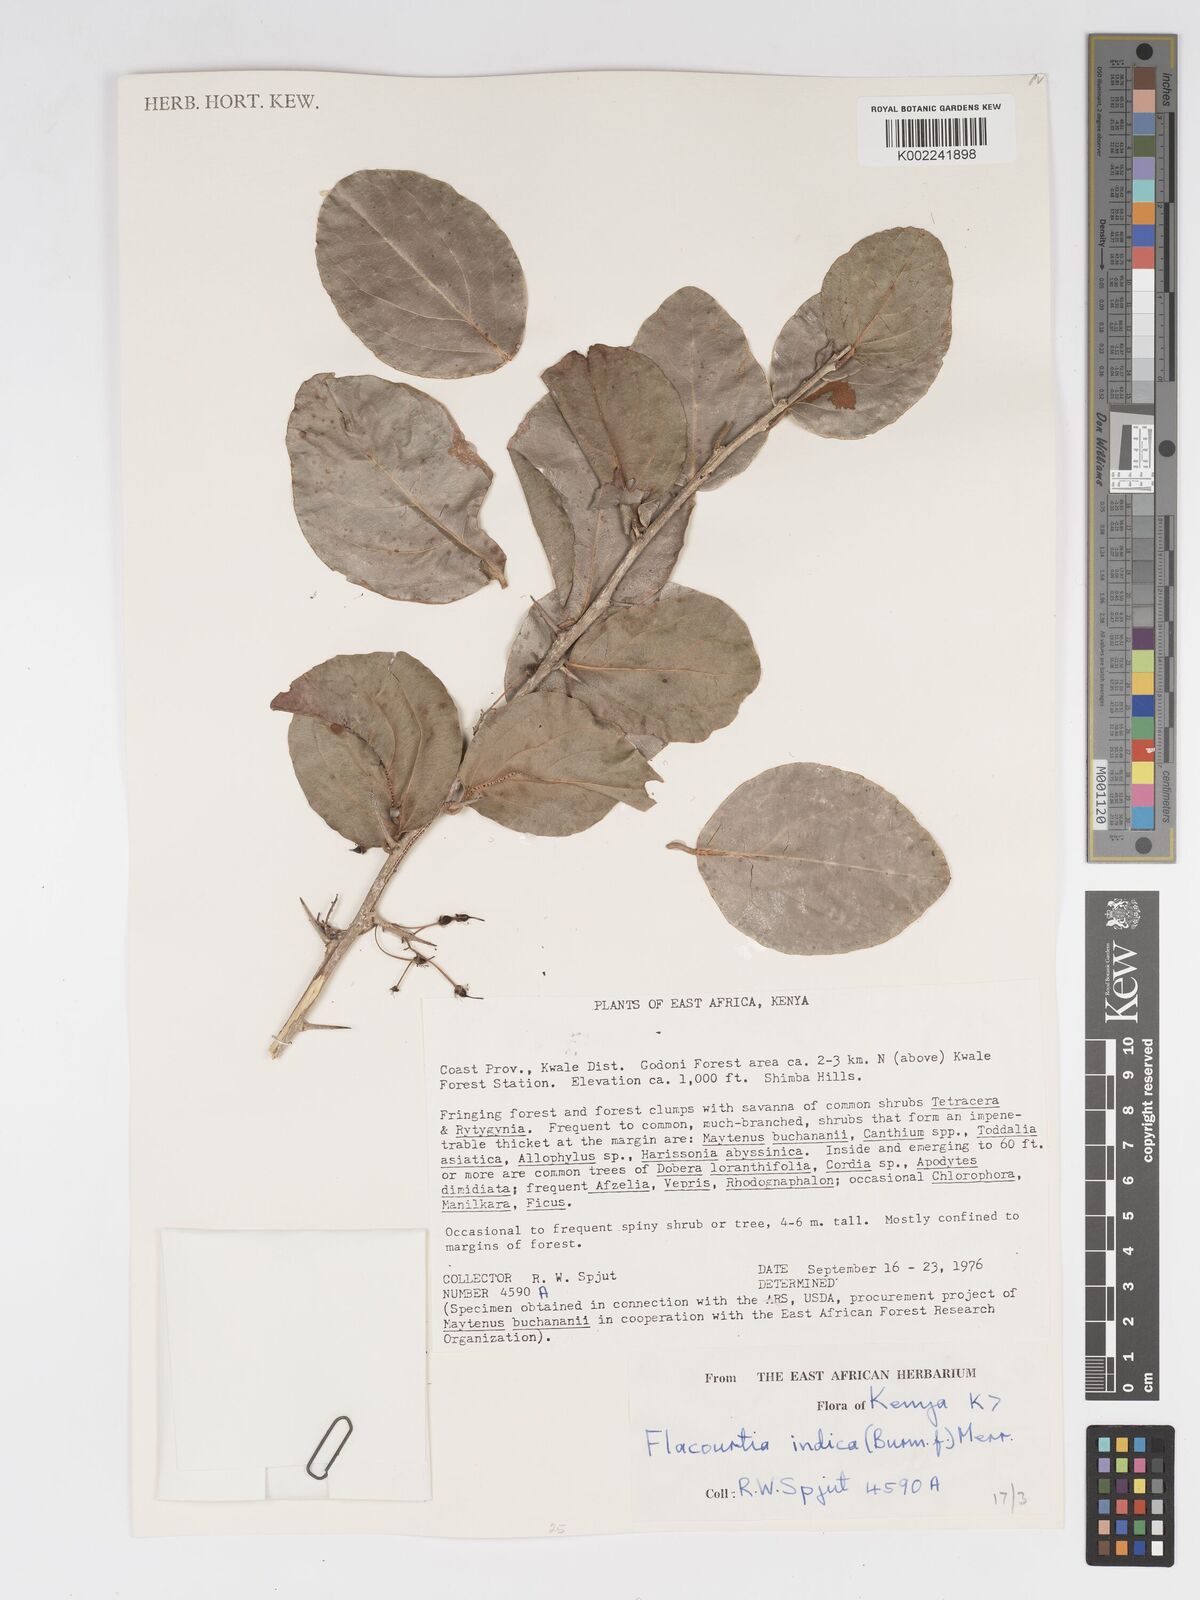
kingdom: Plantae
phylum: Tracheophyta
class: Magnoliopsida
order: Malpighiales
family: Salicaceae
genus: Flacourtia
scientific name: Flacourtia indica
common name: Governor's plum
